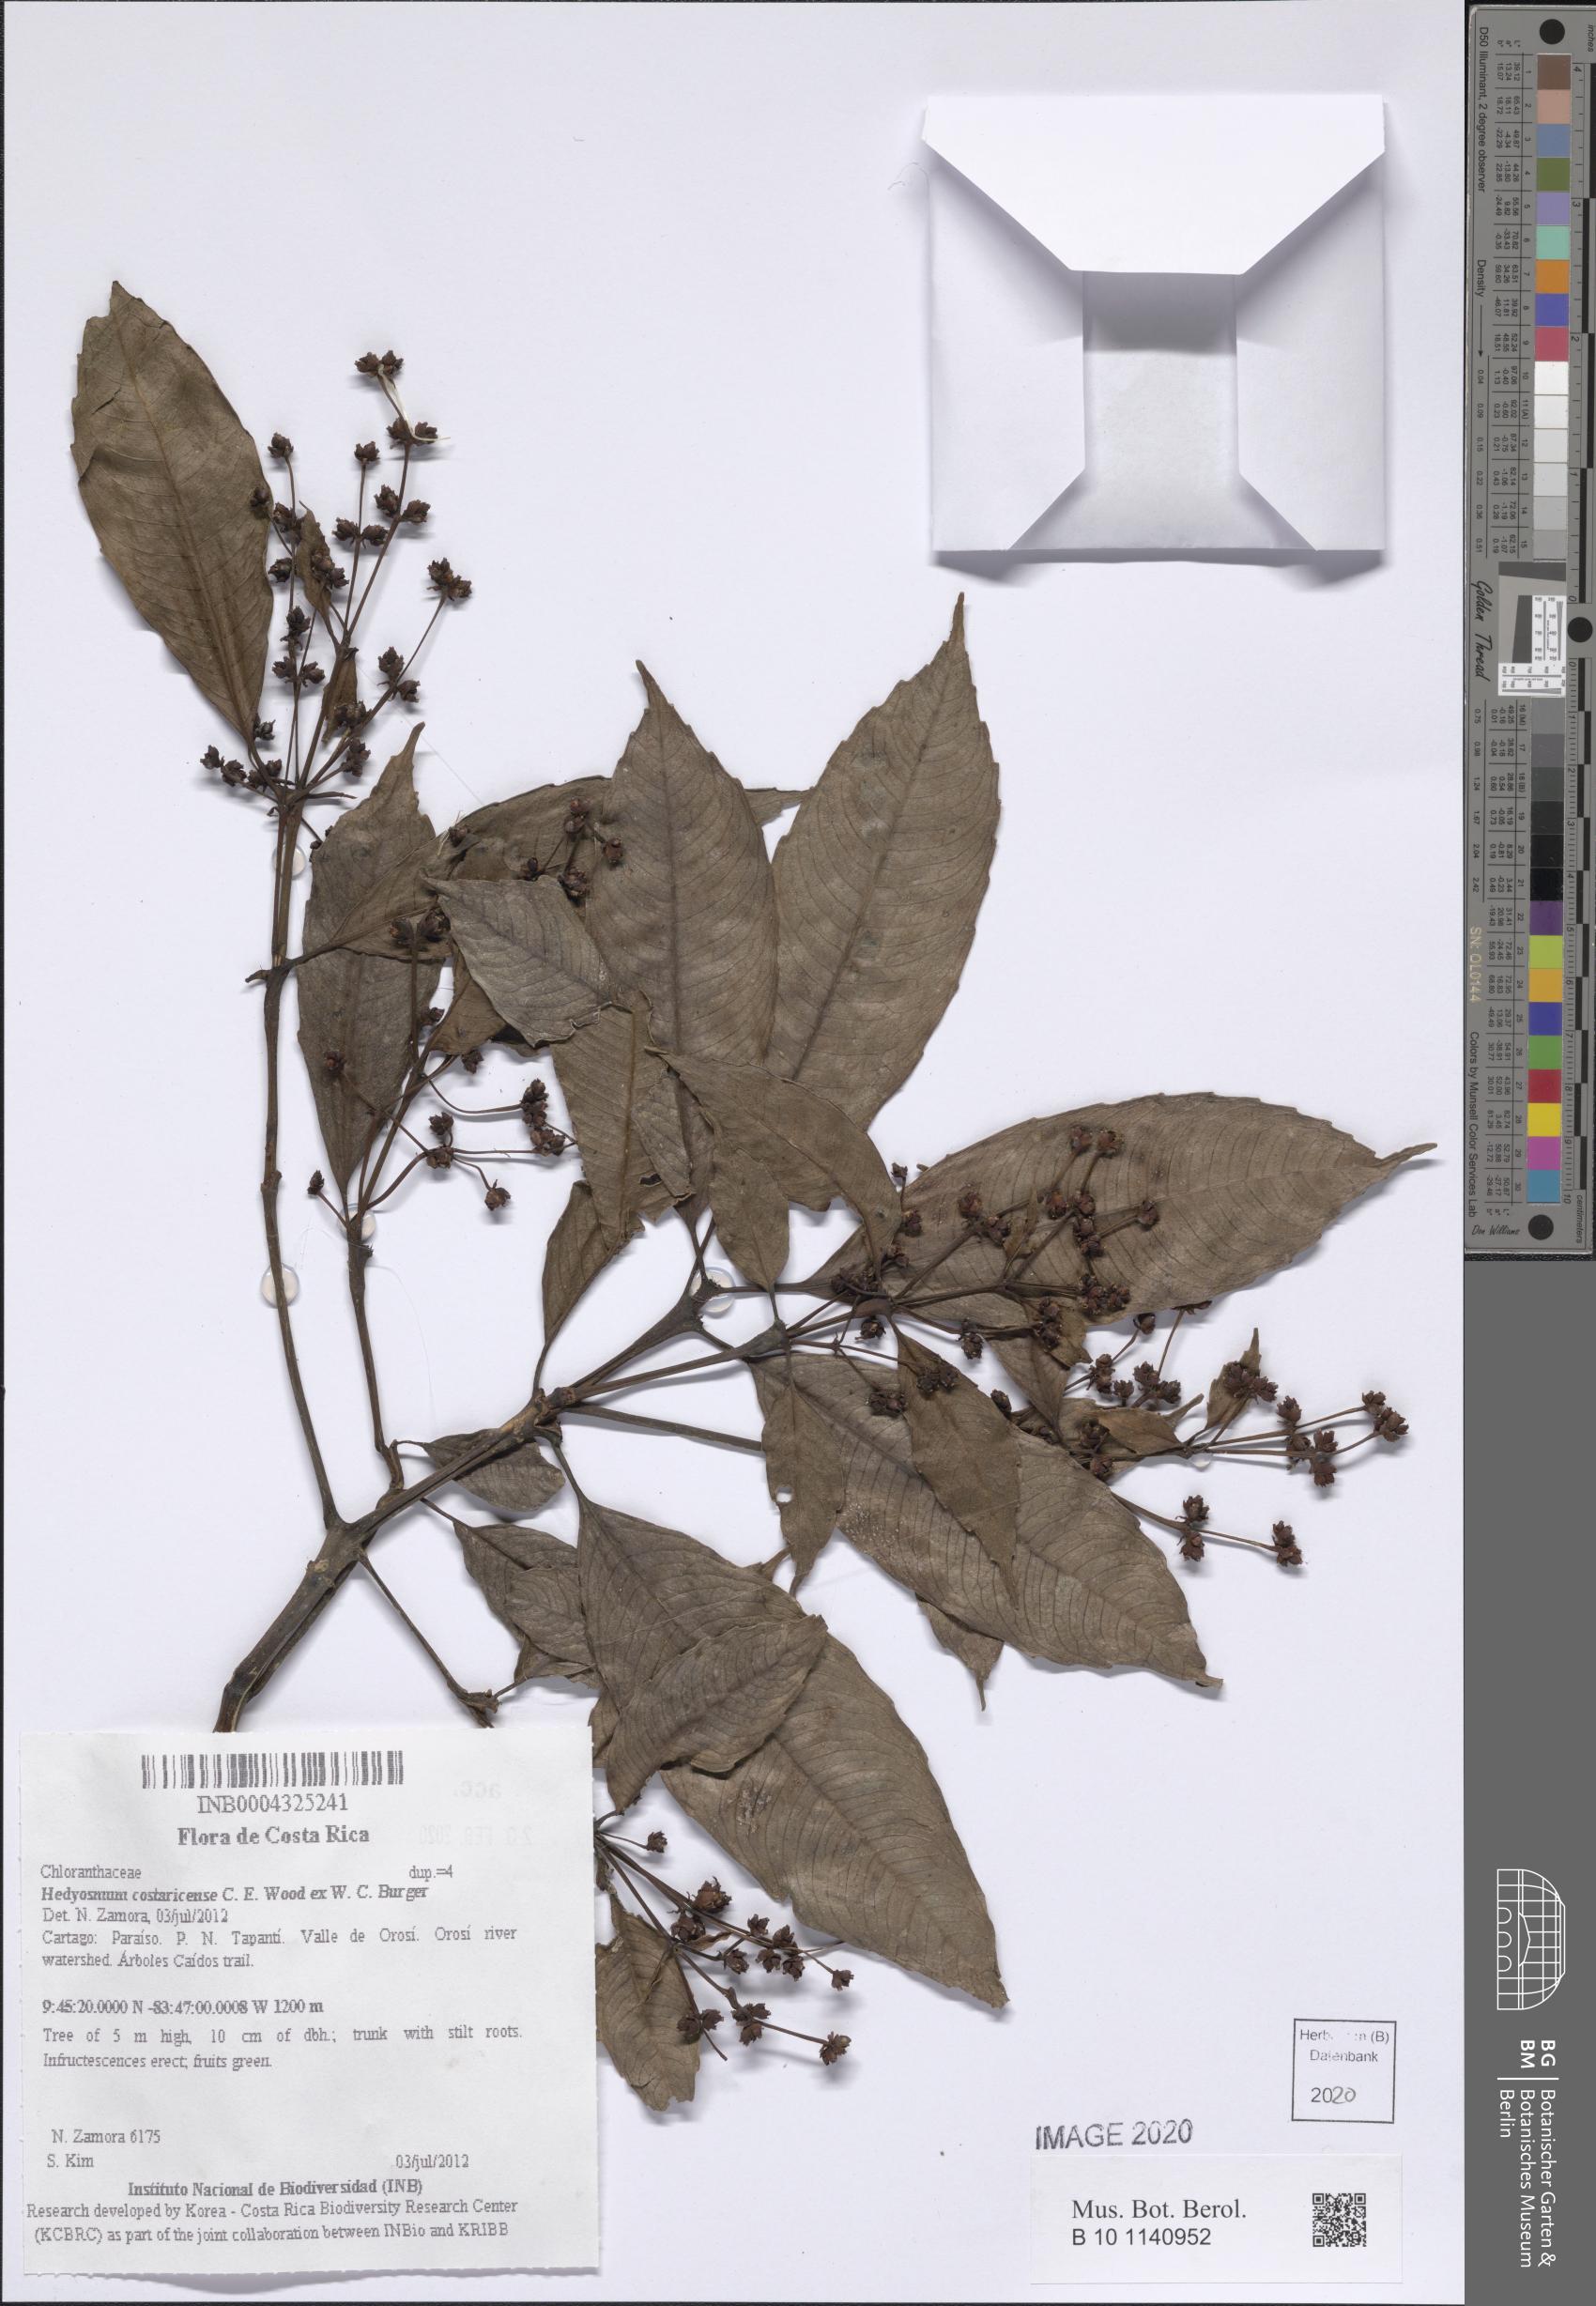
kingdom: Plantae
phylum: Tracheophyta
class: Magnoliopsida
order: Chloranthales
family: Chloranthaceae
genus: Hedyosmum
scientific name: Hedyosmum costaricense
